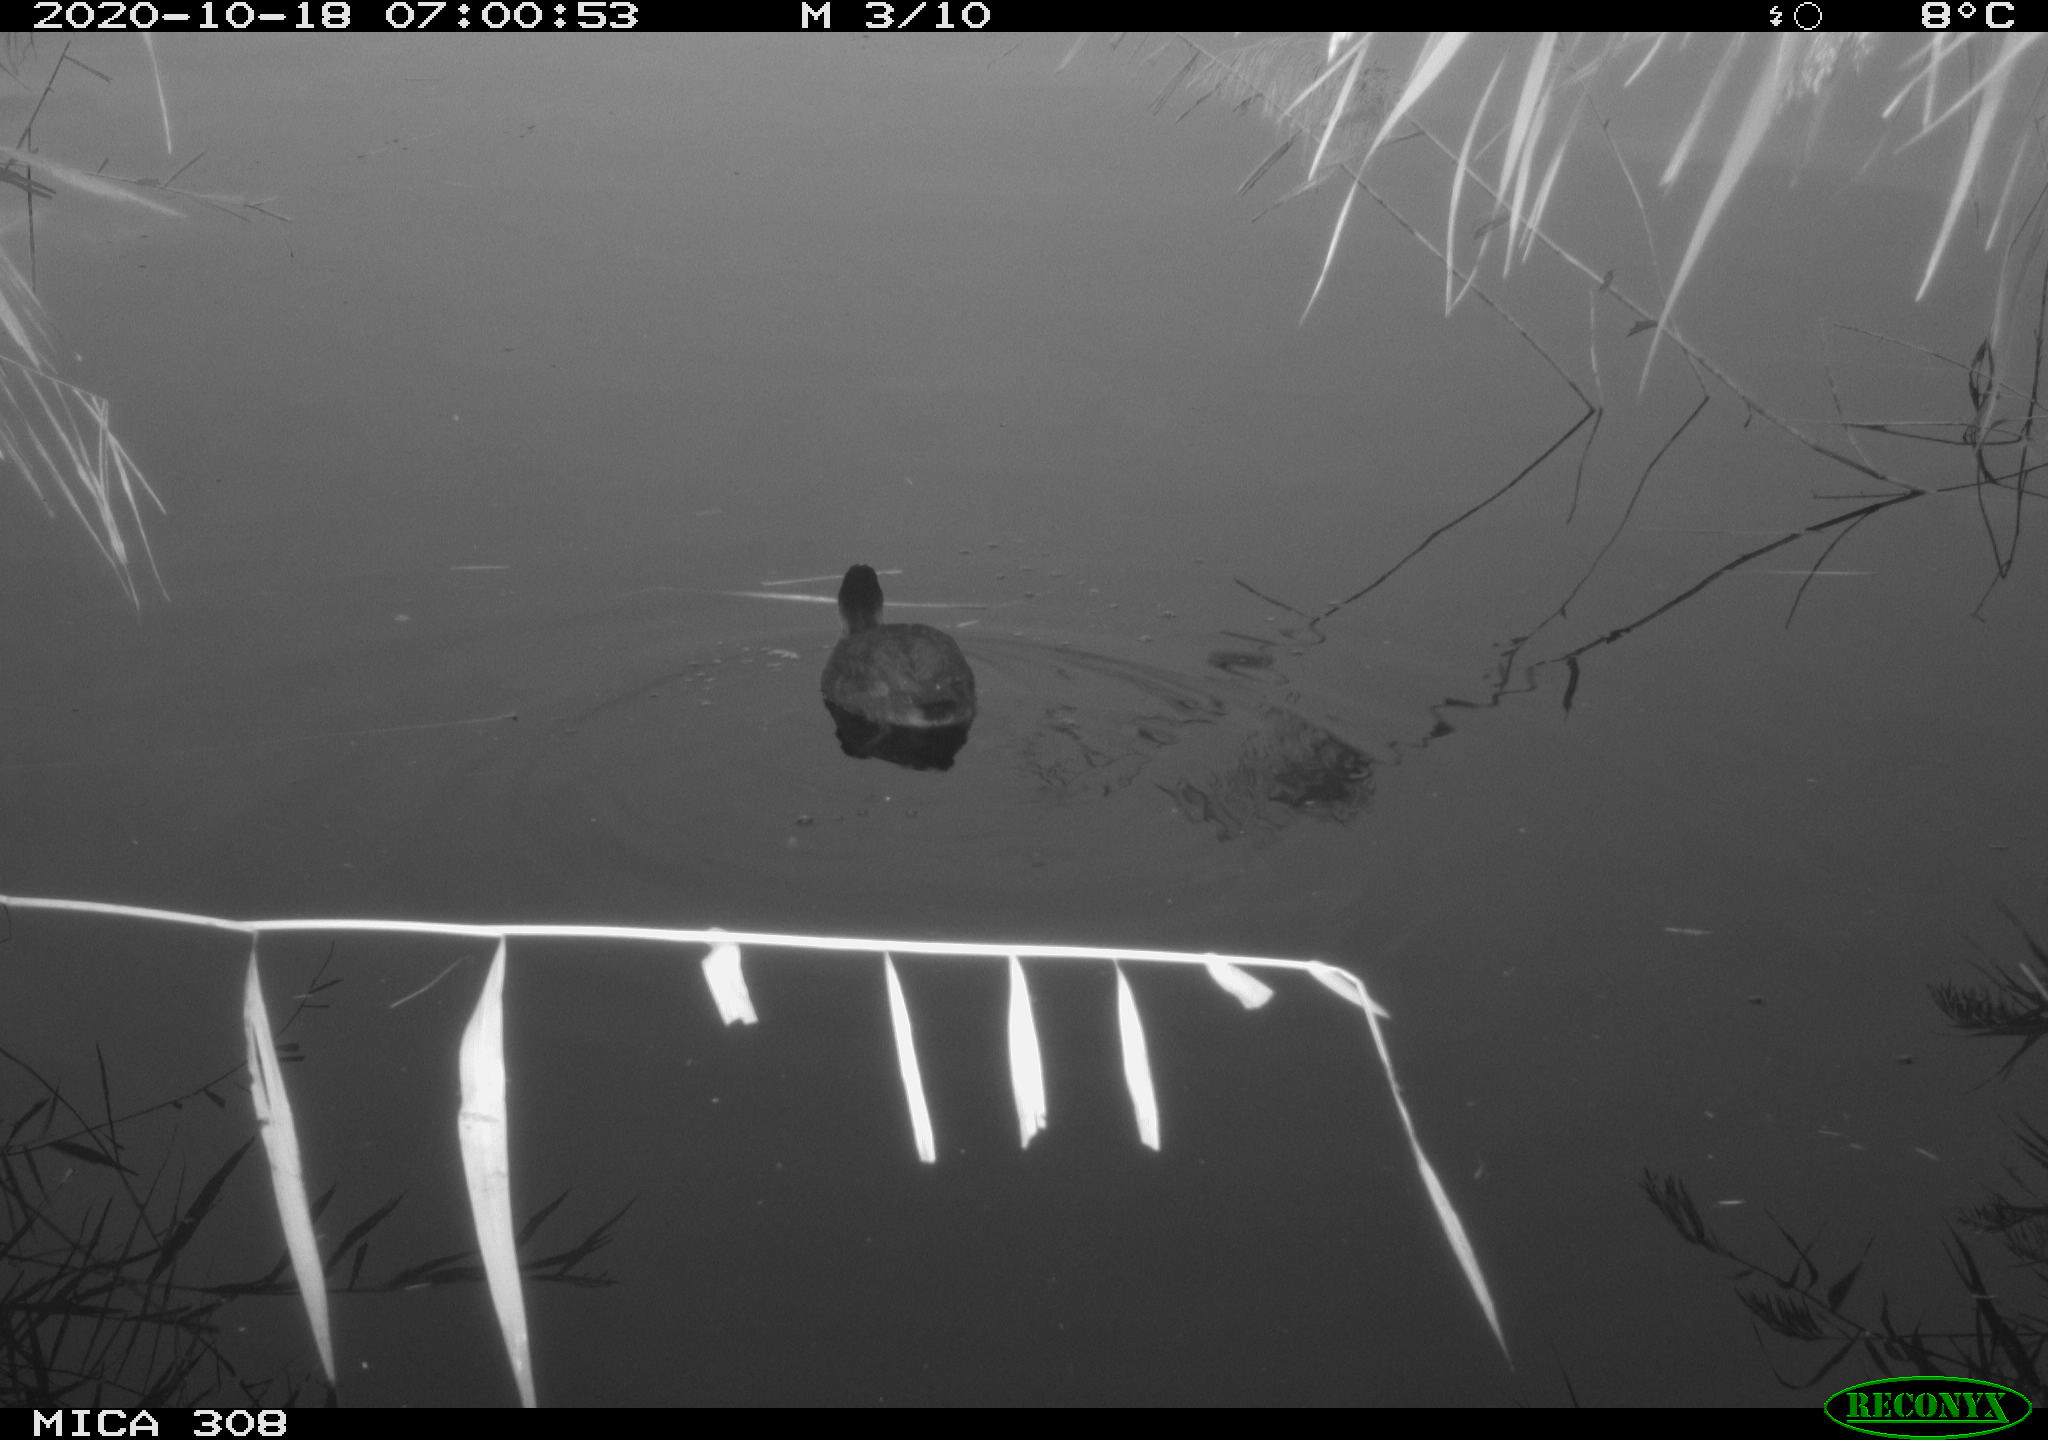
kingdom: Animalia
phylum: Chordata
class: Aves
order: Gruiformes
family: Rallidae
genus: Fulica
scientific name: Fulica atra
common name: Eurasian coot
